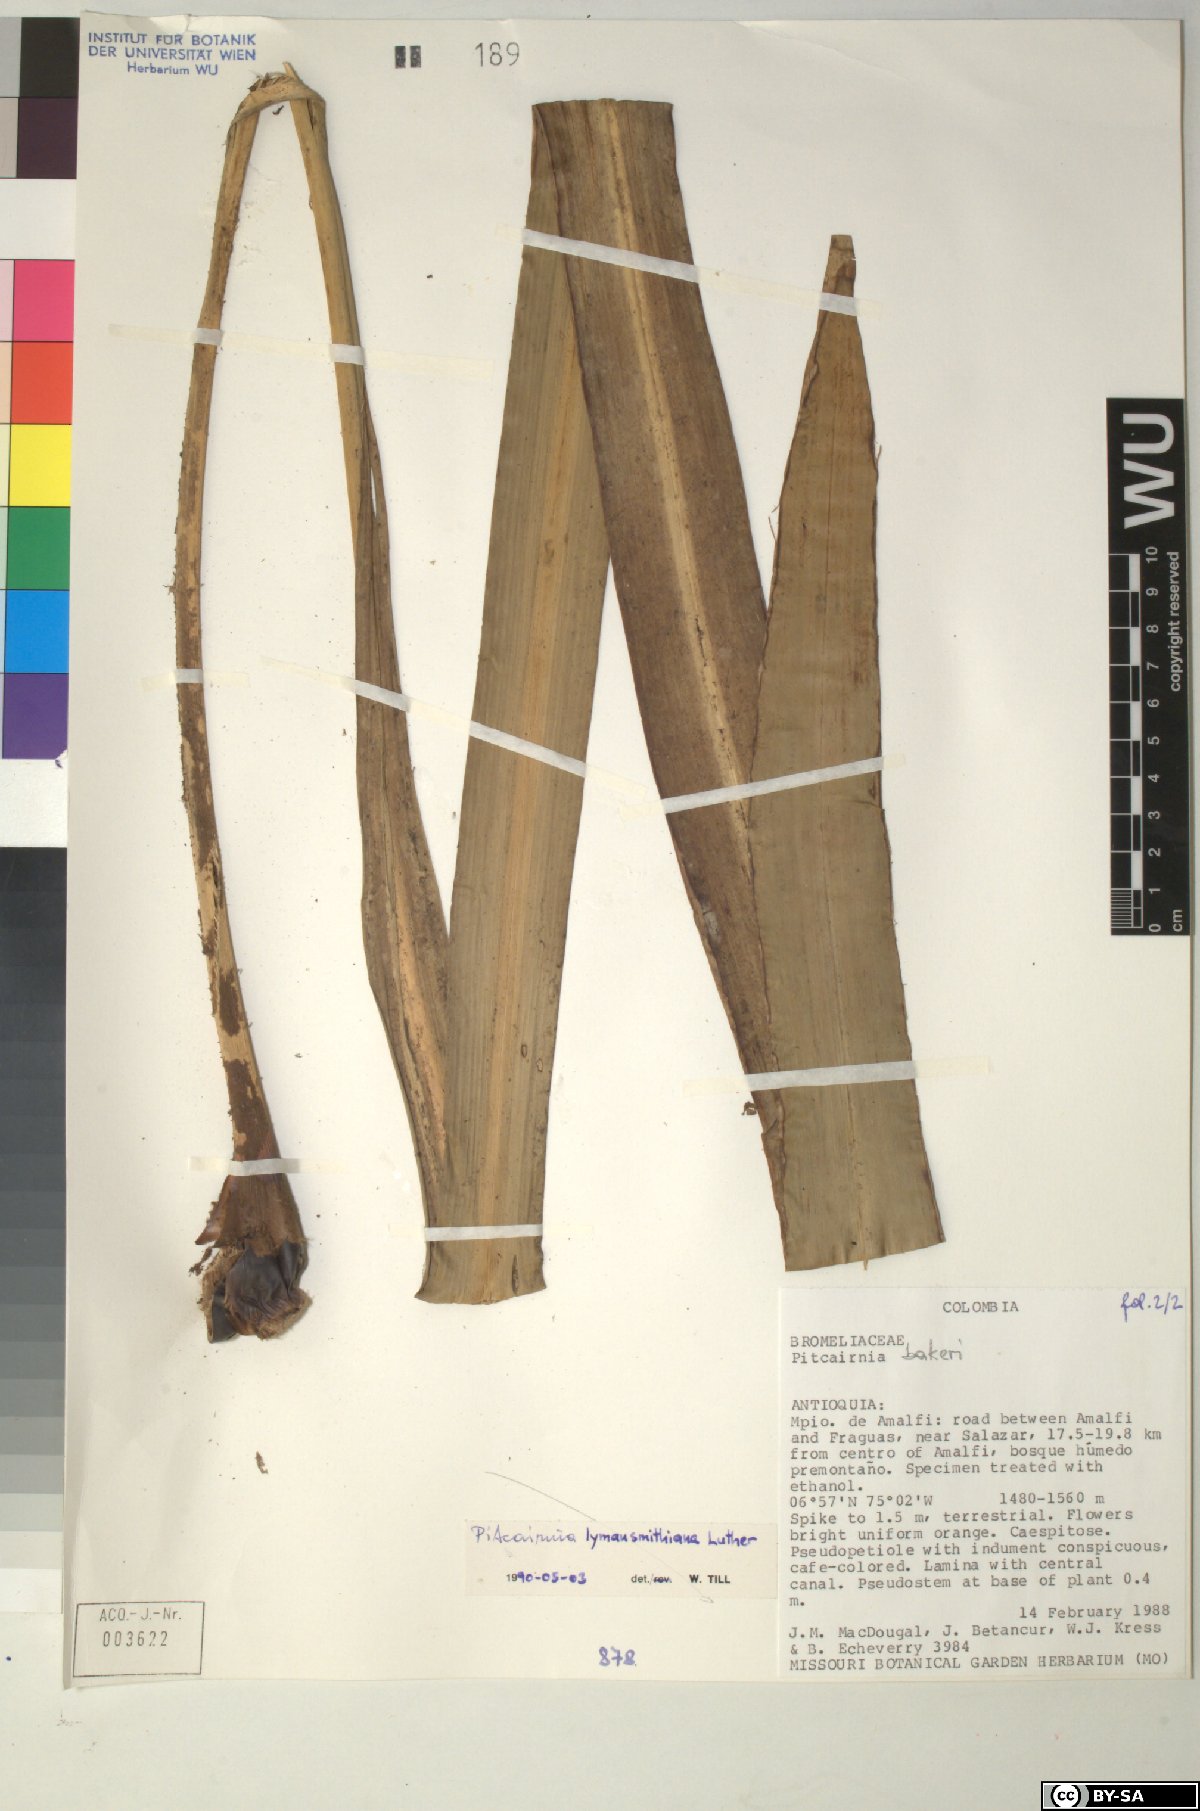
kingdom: Plantae
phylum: Tracheophyta
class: Liliopsida
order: Poales
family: Bromeliaceae
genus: Pitcairnia
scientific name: Pitcairnia
